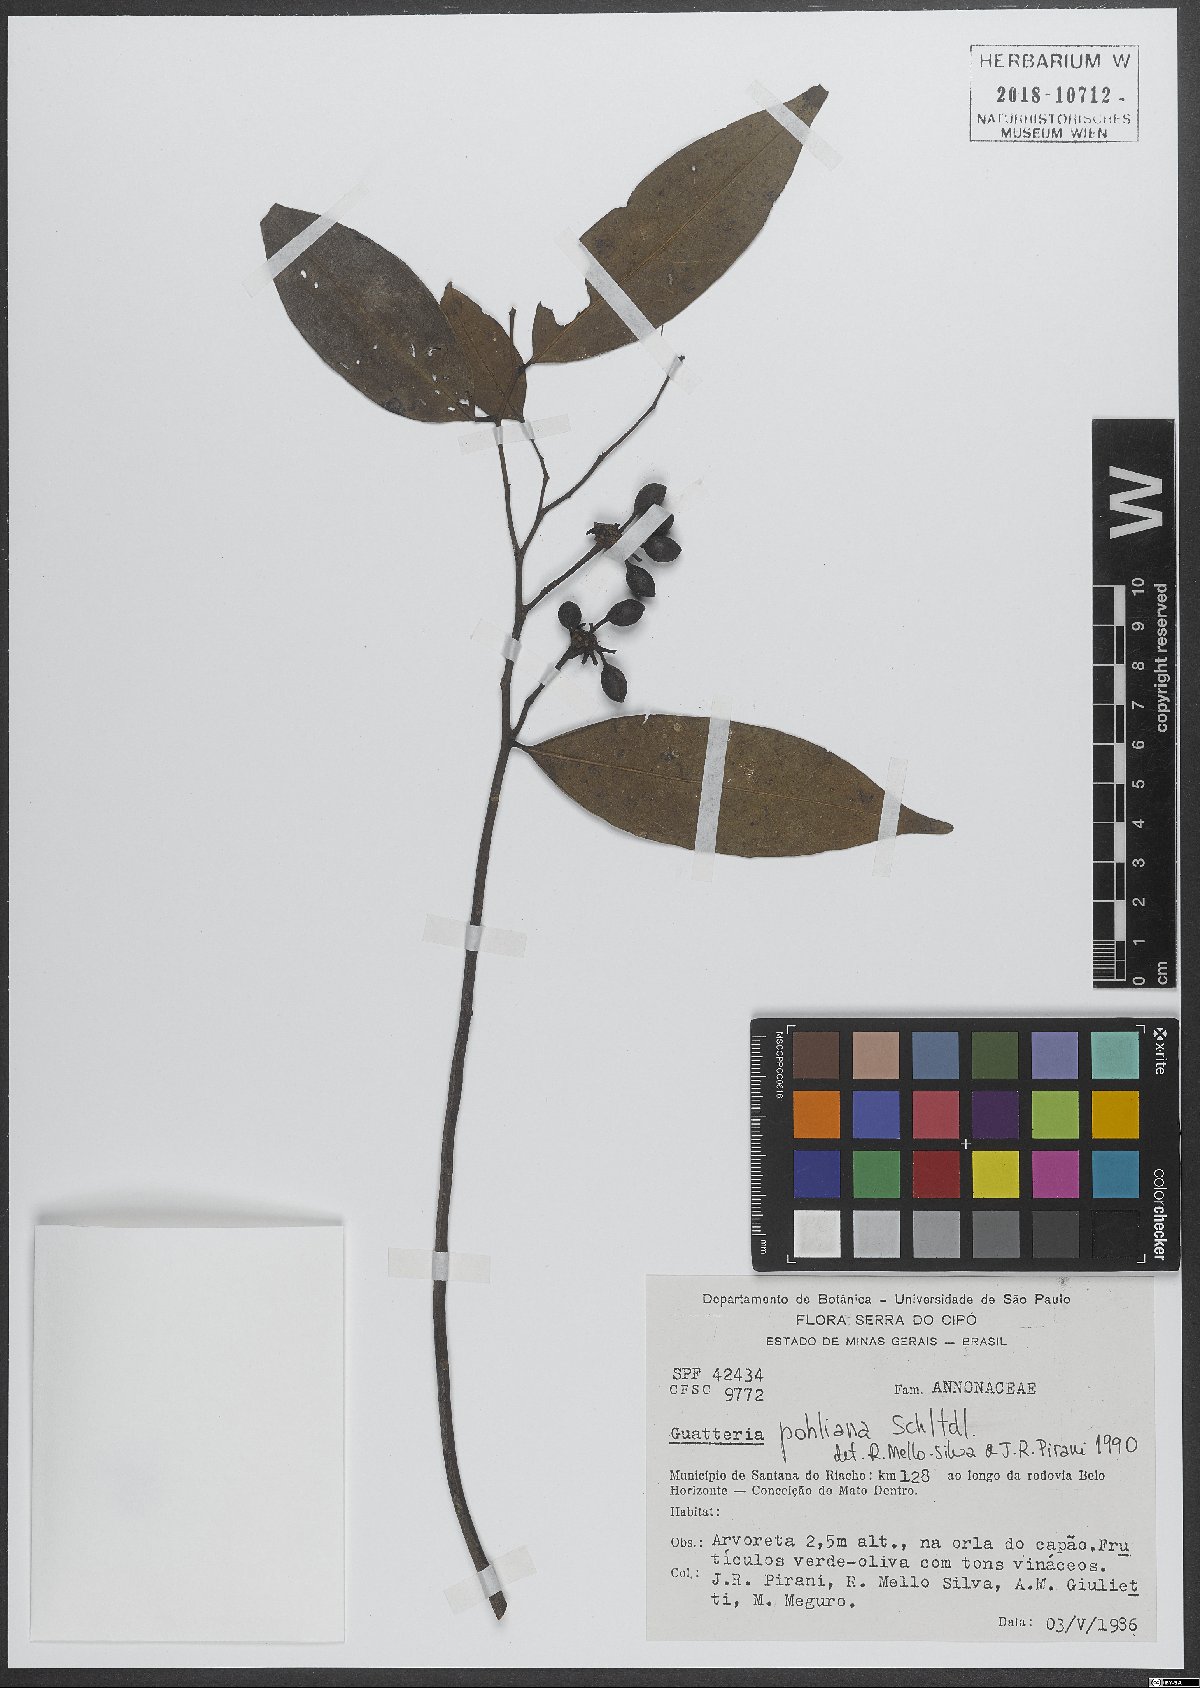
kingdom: Plantae
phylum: Tracheophyta
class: Magnoliopsida
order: Magnoliales
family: Annonaceae
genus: Guatteria
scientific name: Guatteria pohliana
